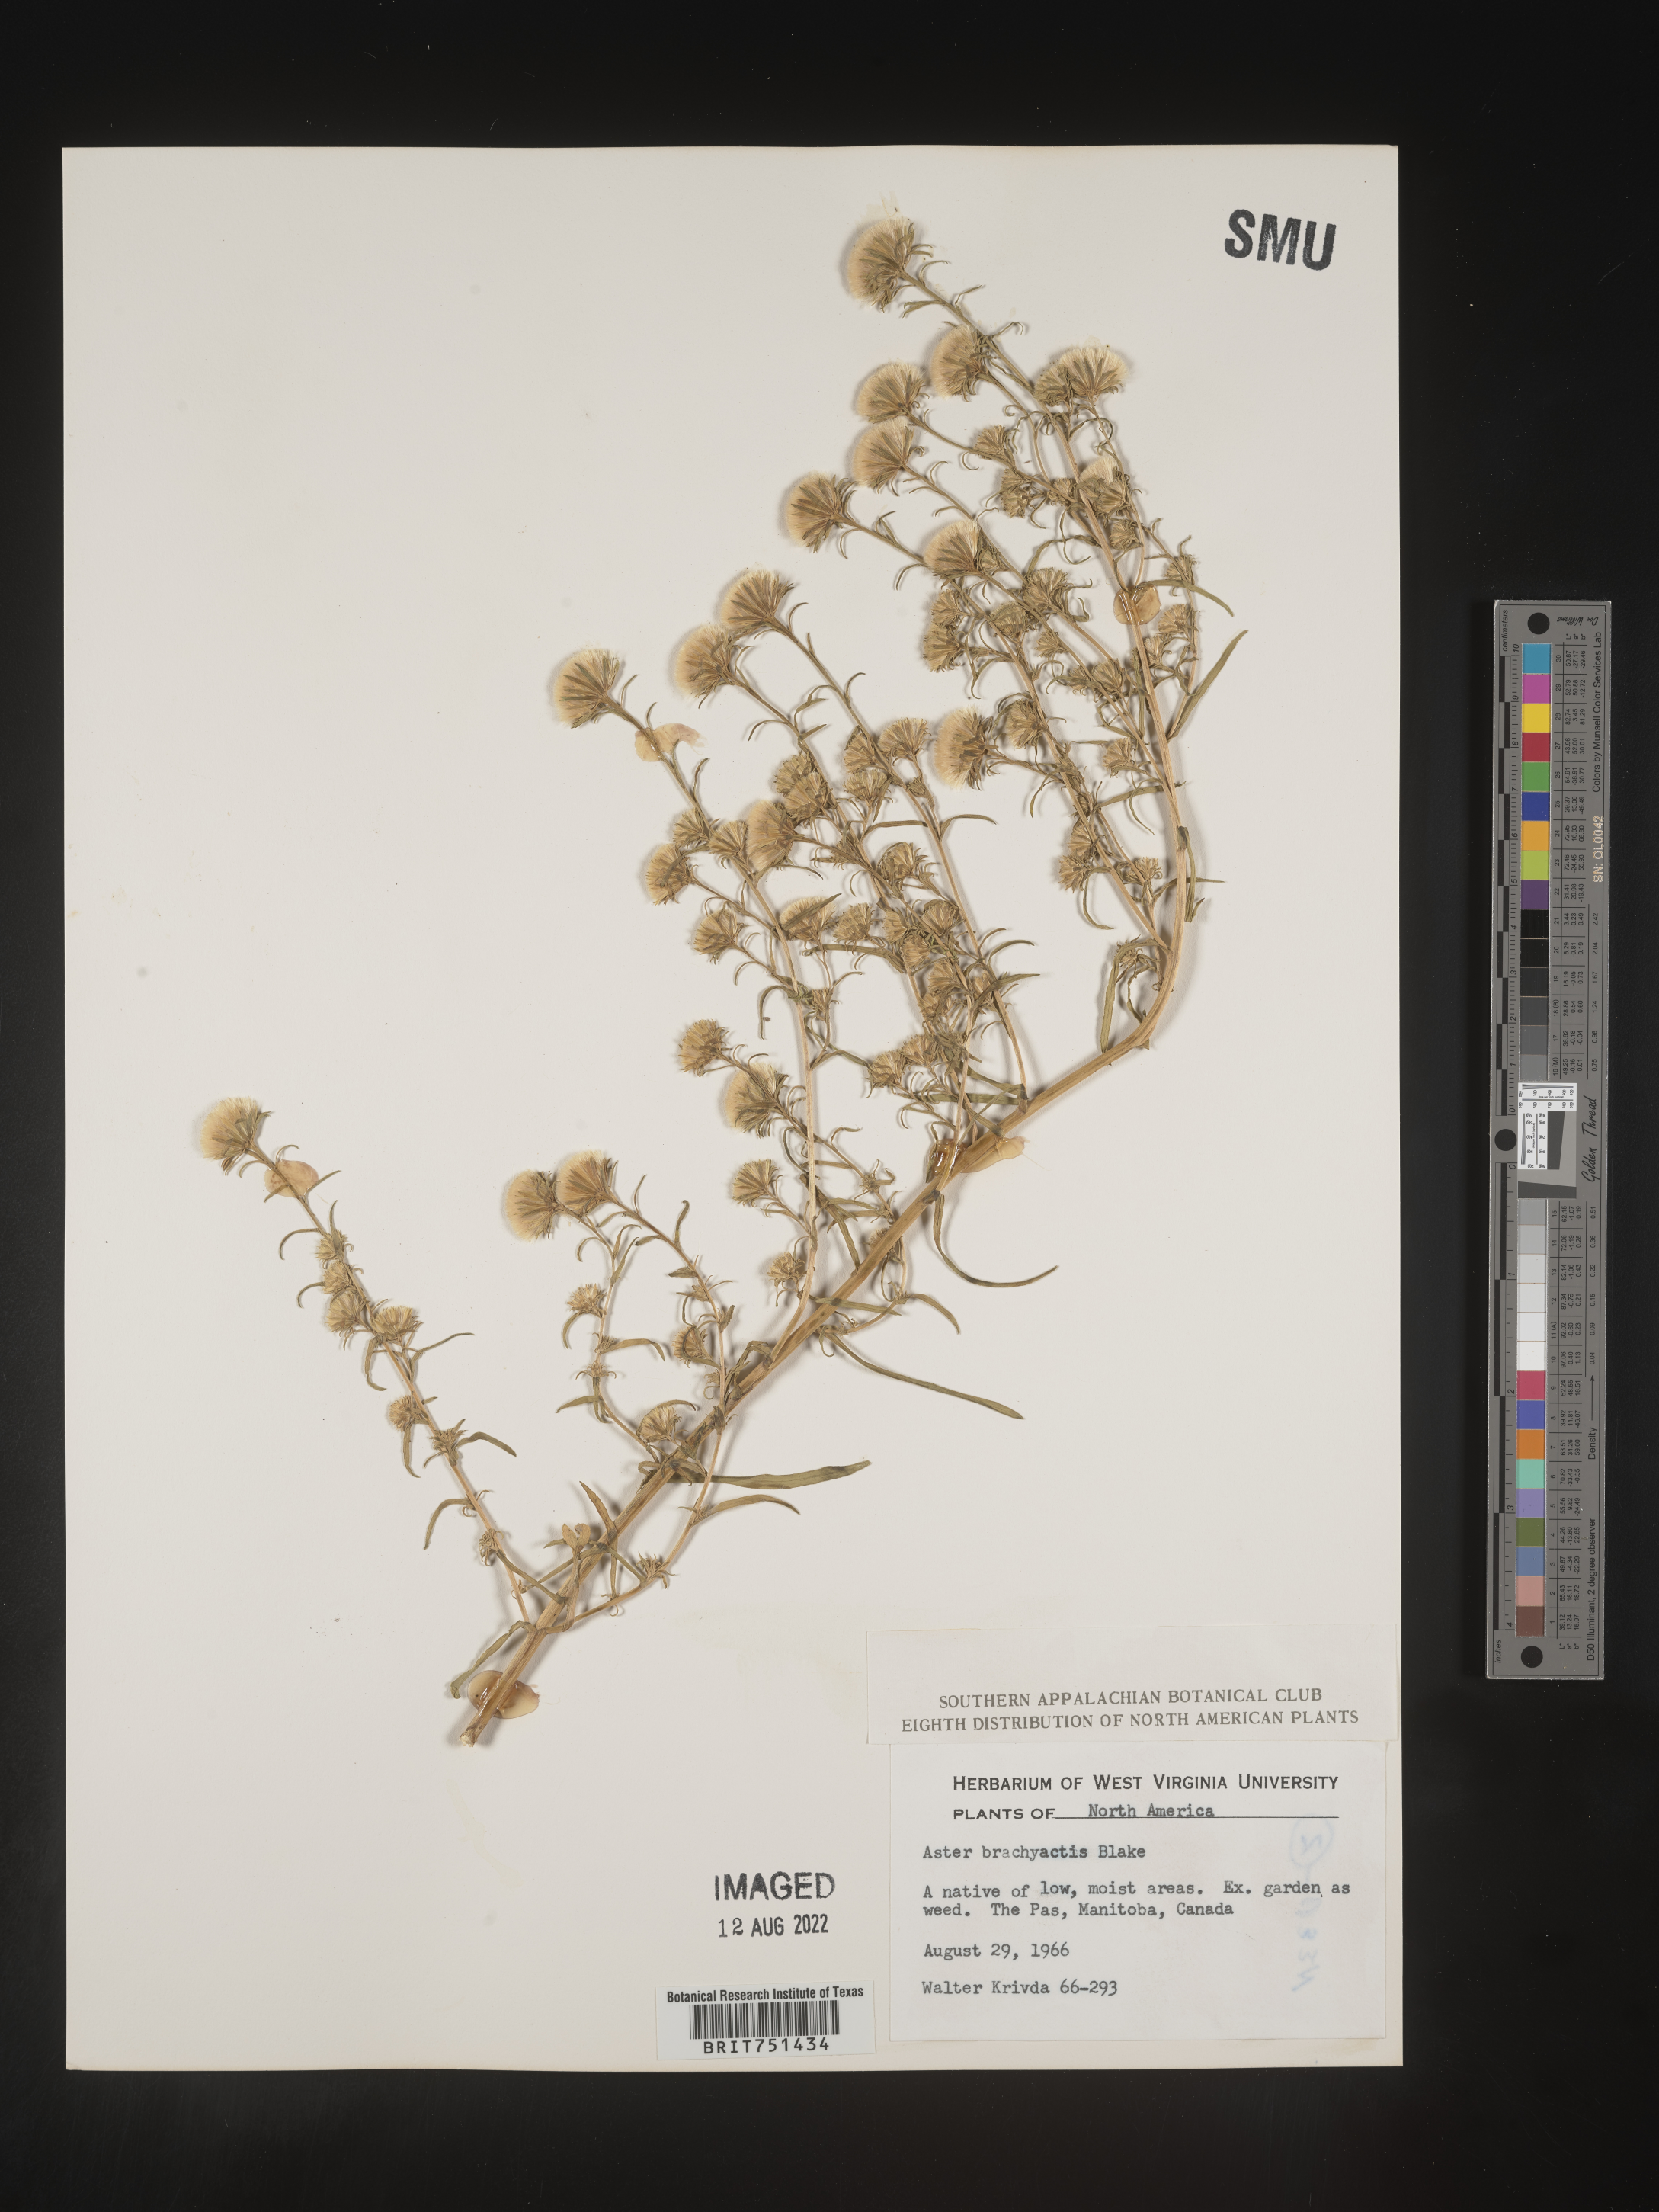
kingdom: Plantae
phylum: Tracheophyta
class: Magnoliopsida
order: Asterales
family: Asteraceae
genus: Symphyotrichum
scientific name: Symphyotrichum ciliatum
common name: Rayless annual aster
